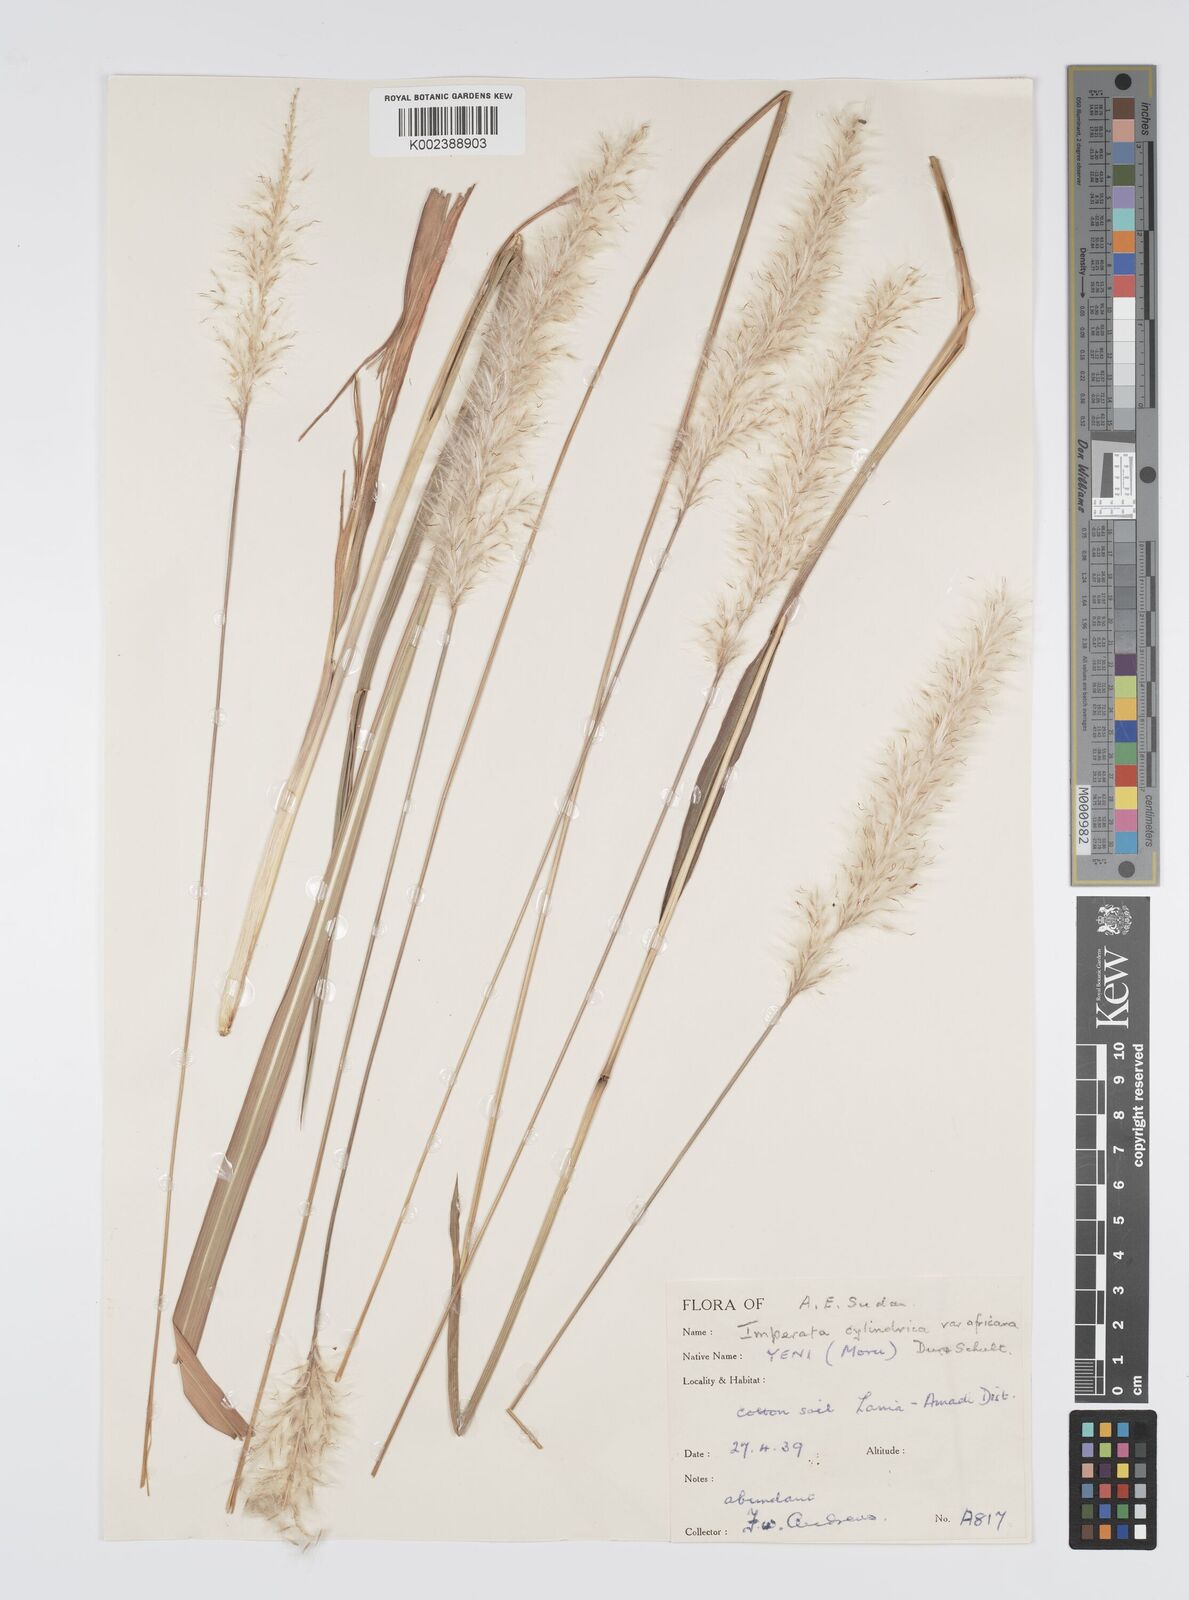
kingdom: Plantae
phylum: Tracheophyta
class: Liliopsida
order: Poales
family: Poaceae
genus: Imperata
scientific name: Imperata cylindrica
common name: Cogongrass
